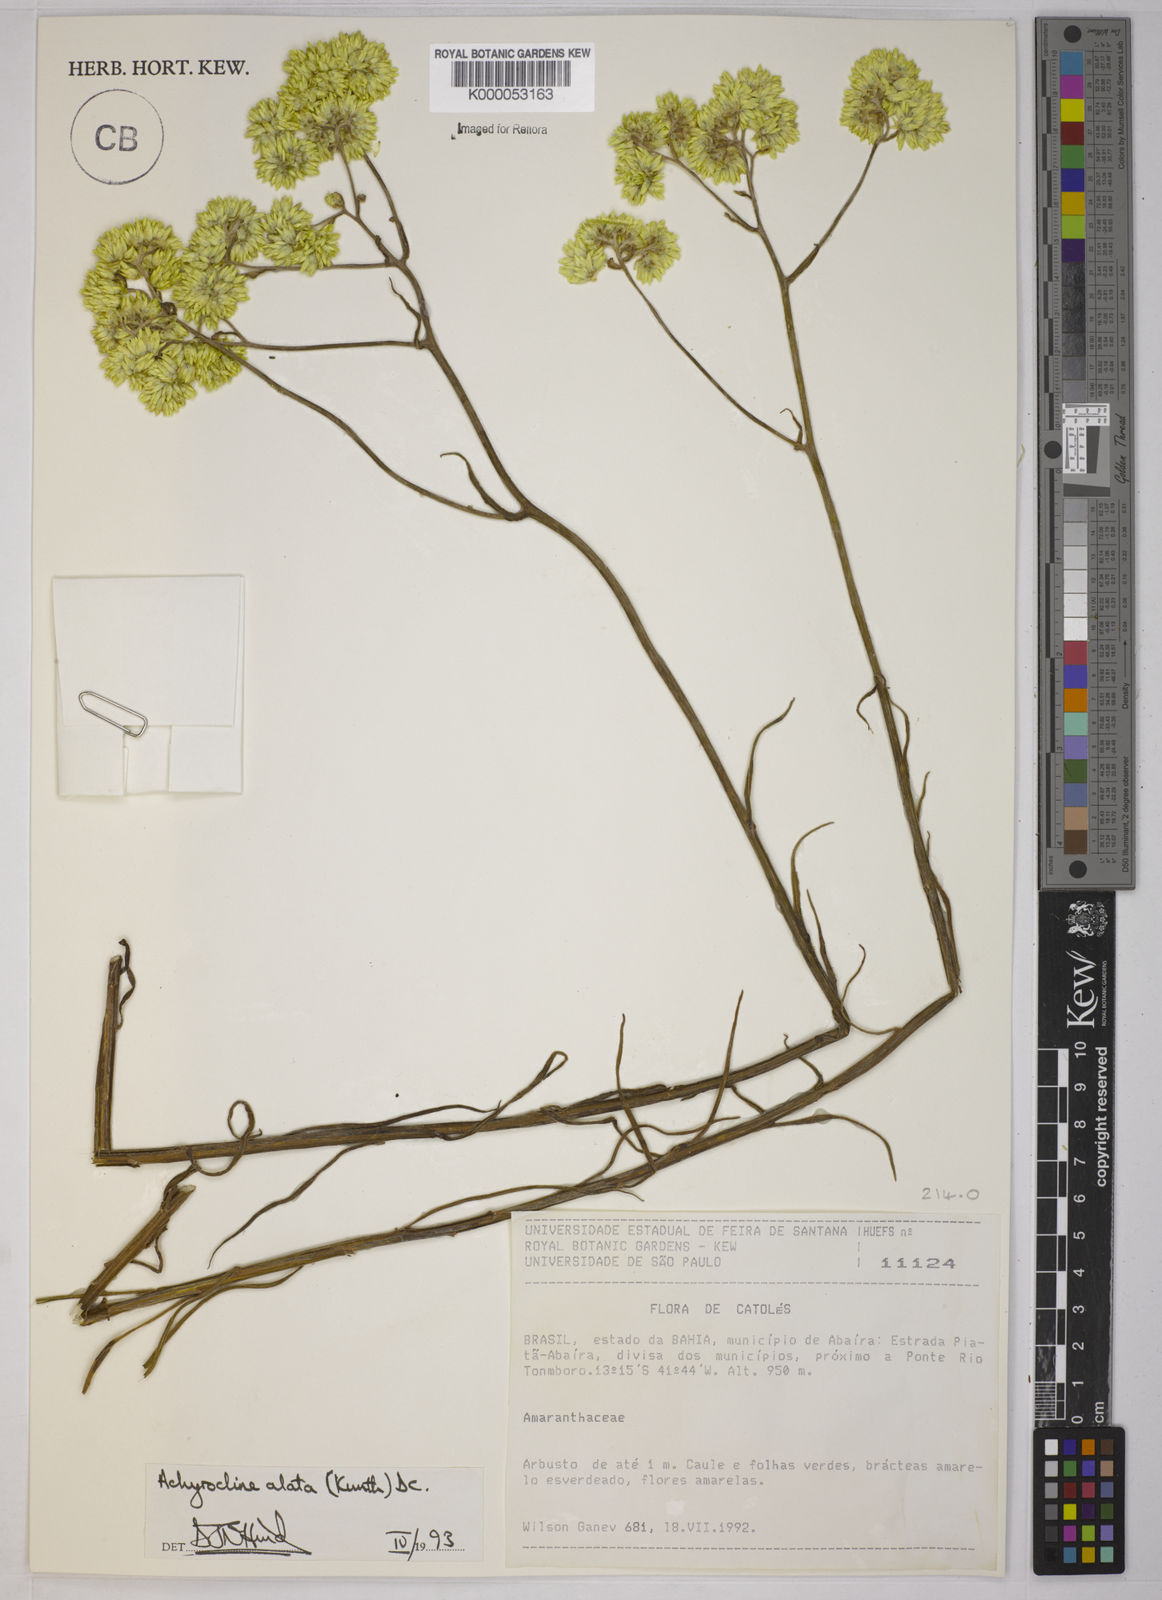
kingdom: Plantae
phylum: Tracheophyta
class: Magnoliopsida
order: Asterales
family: Asteraceae
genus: Achyrocline
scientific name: Achyrocline alata
